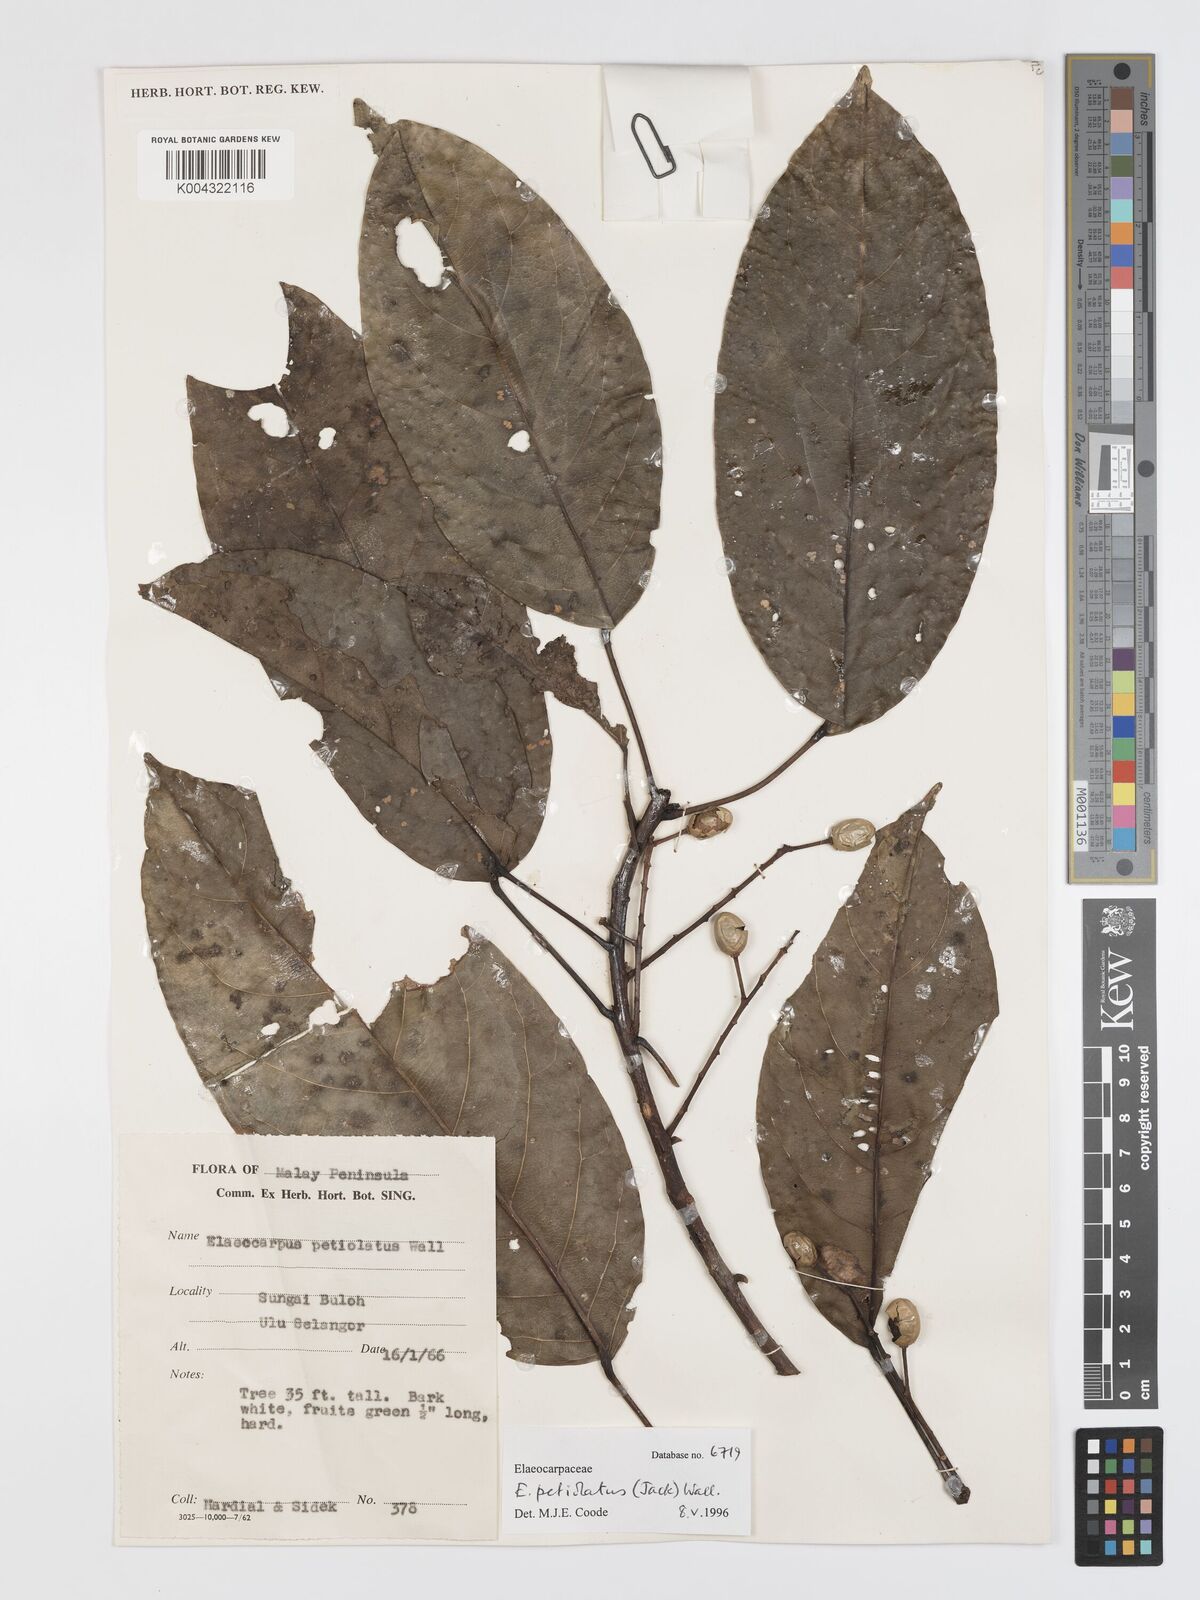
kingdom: Plantae
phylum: Tracheophyta
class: Magnoliopsida
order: Oxalidales
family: Elaeocarpaceae
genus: Elaeocarpus
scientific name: Elaeocarpus petiolatus
